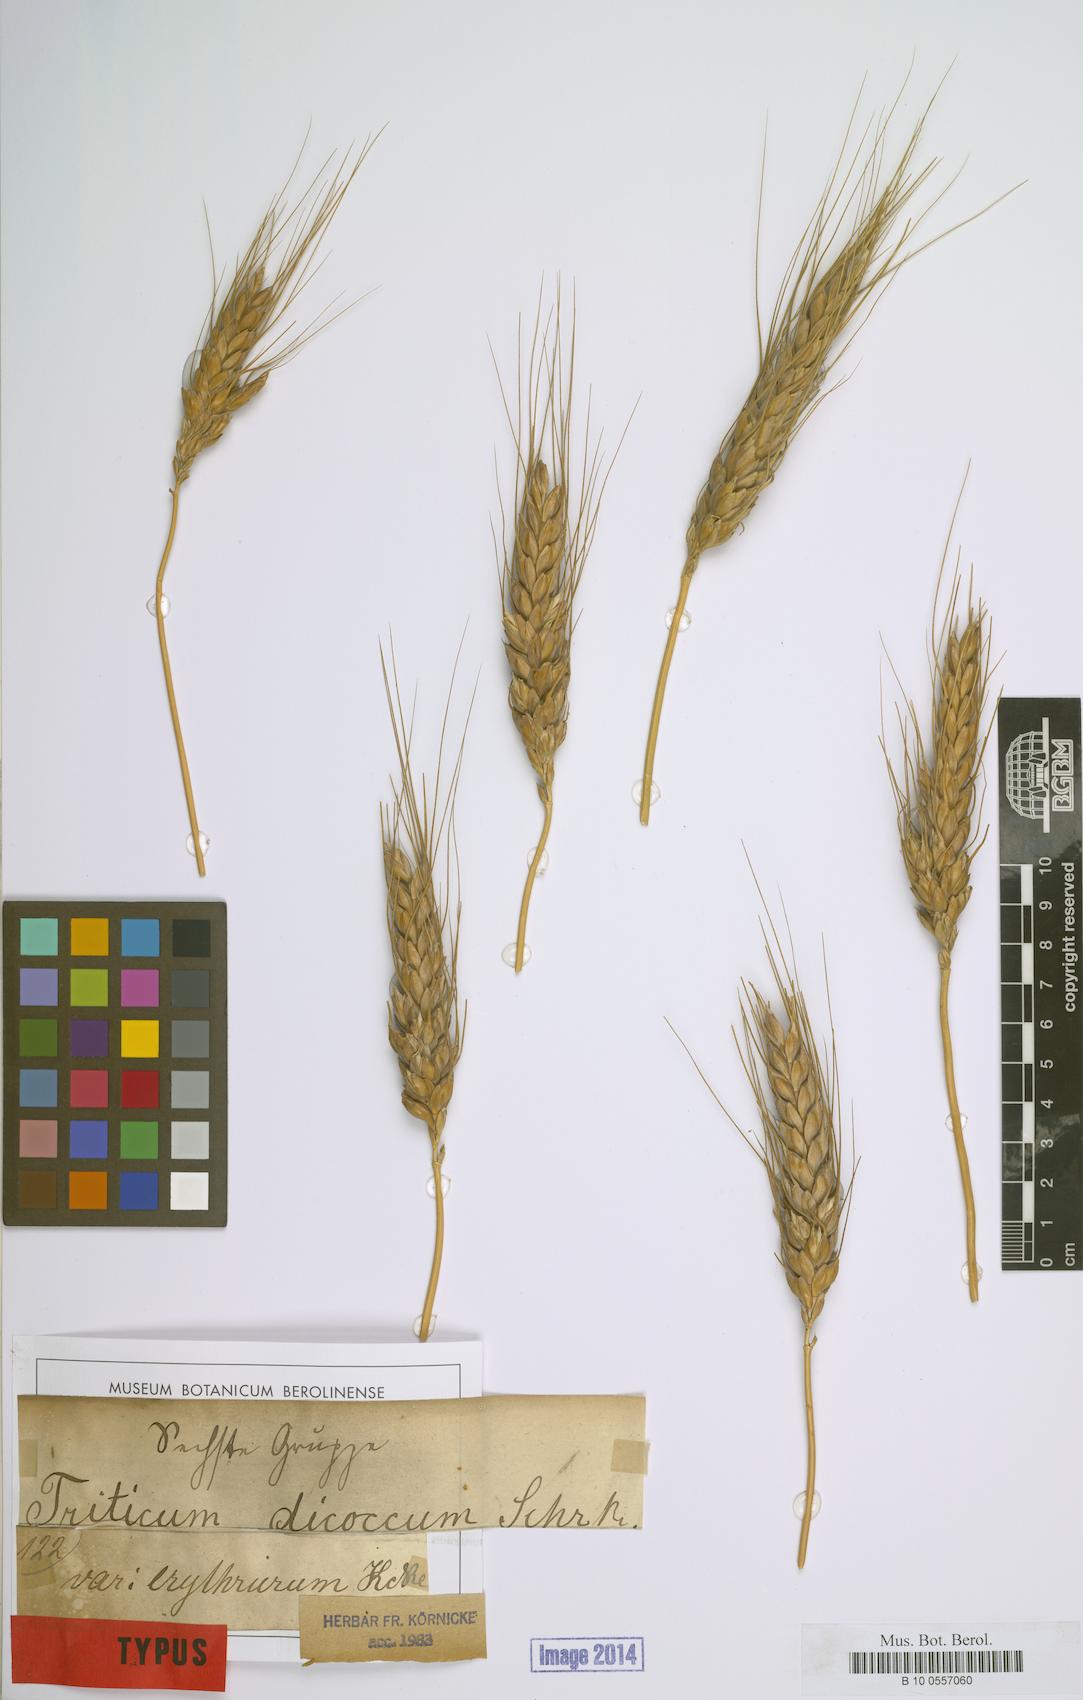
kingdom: Plantae
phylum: Tracheophyta
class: Liliopsida
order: Poales
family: Poaceae
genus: Triticum
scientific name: Triticum turgidum
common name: Rivet wheat
